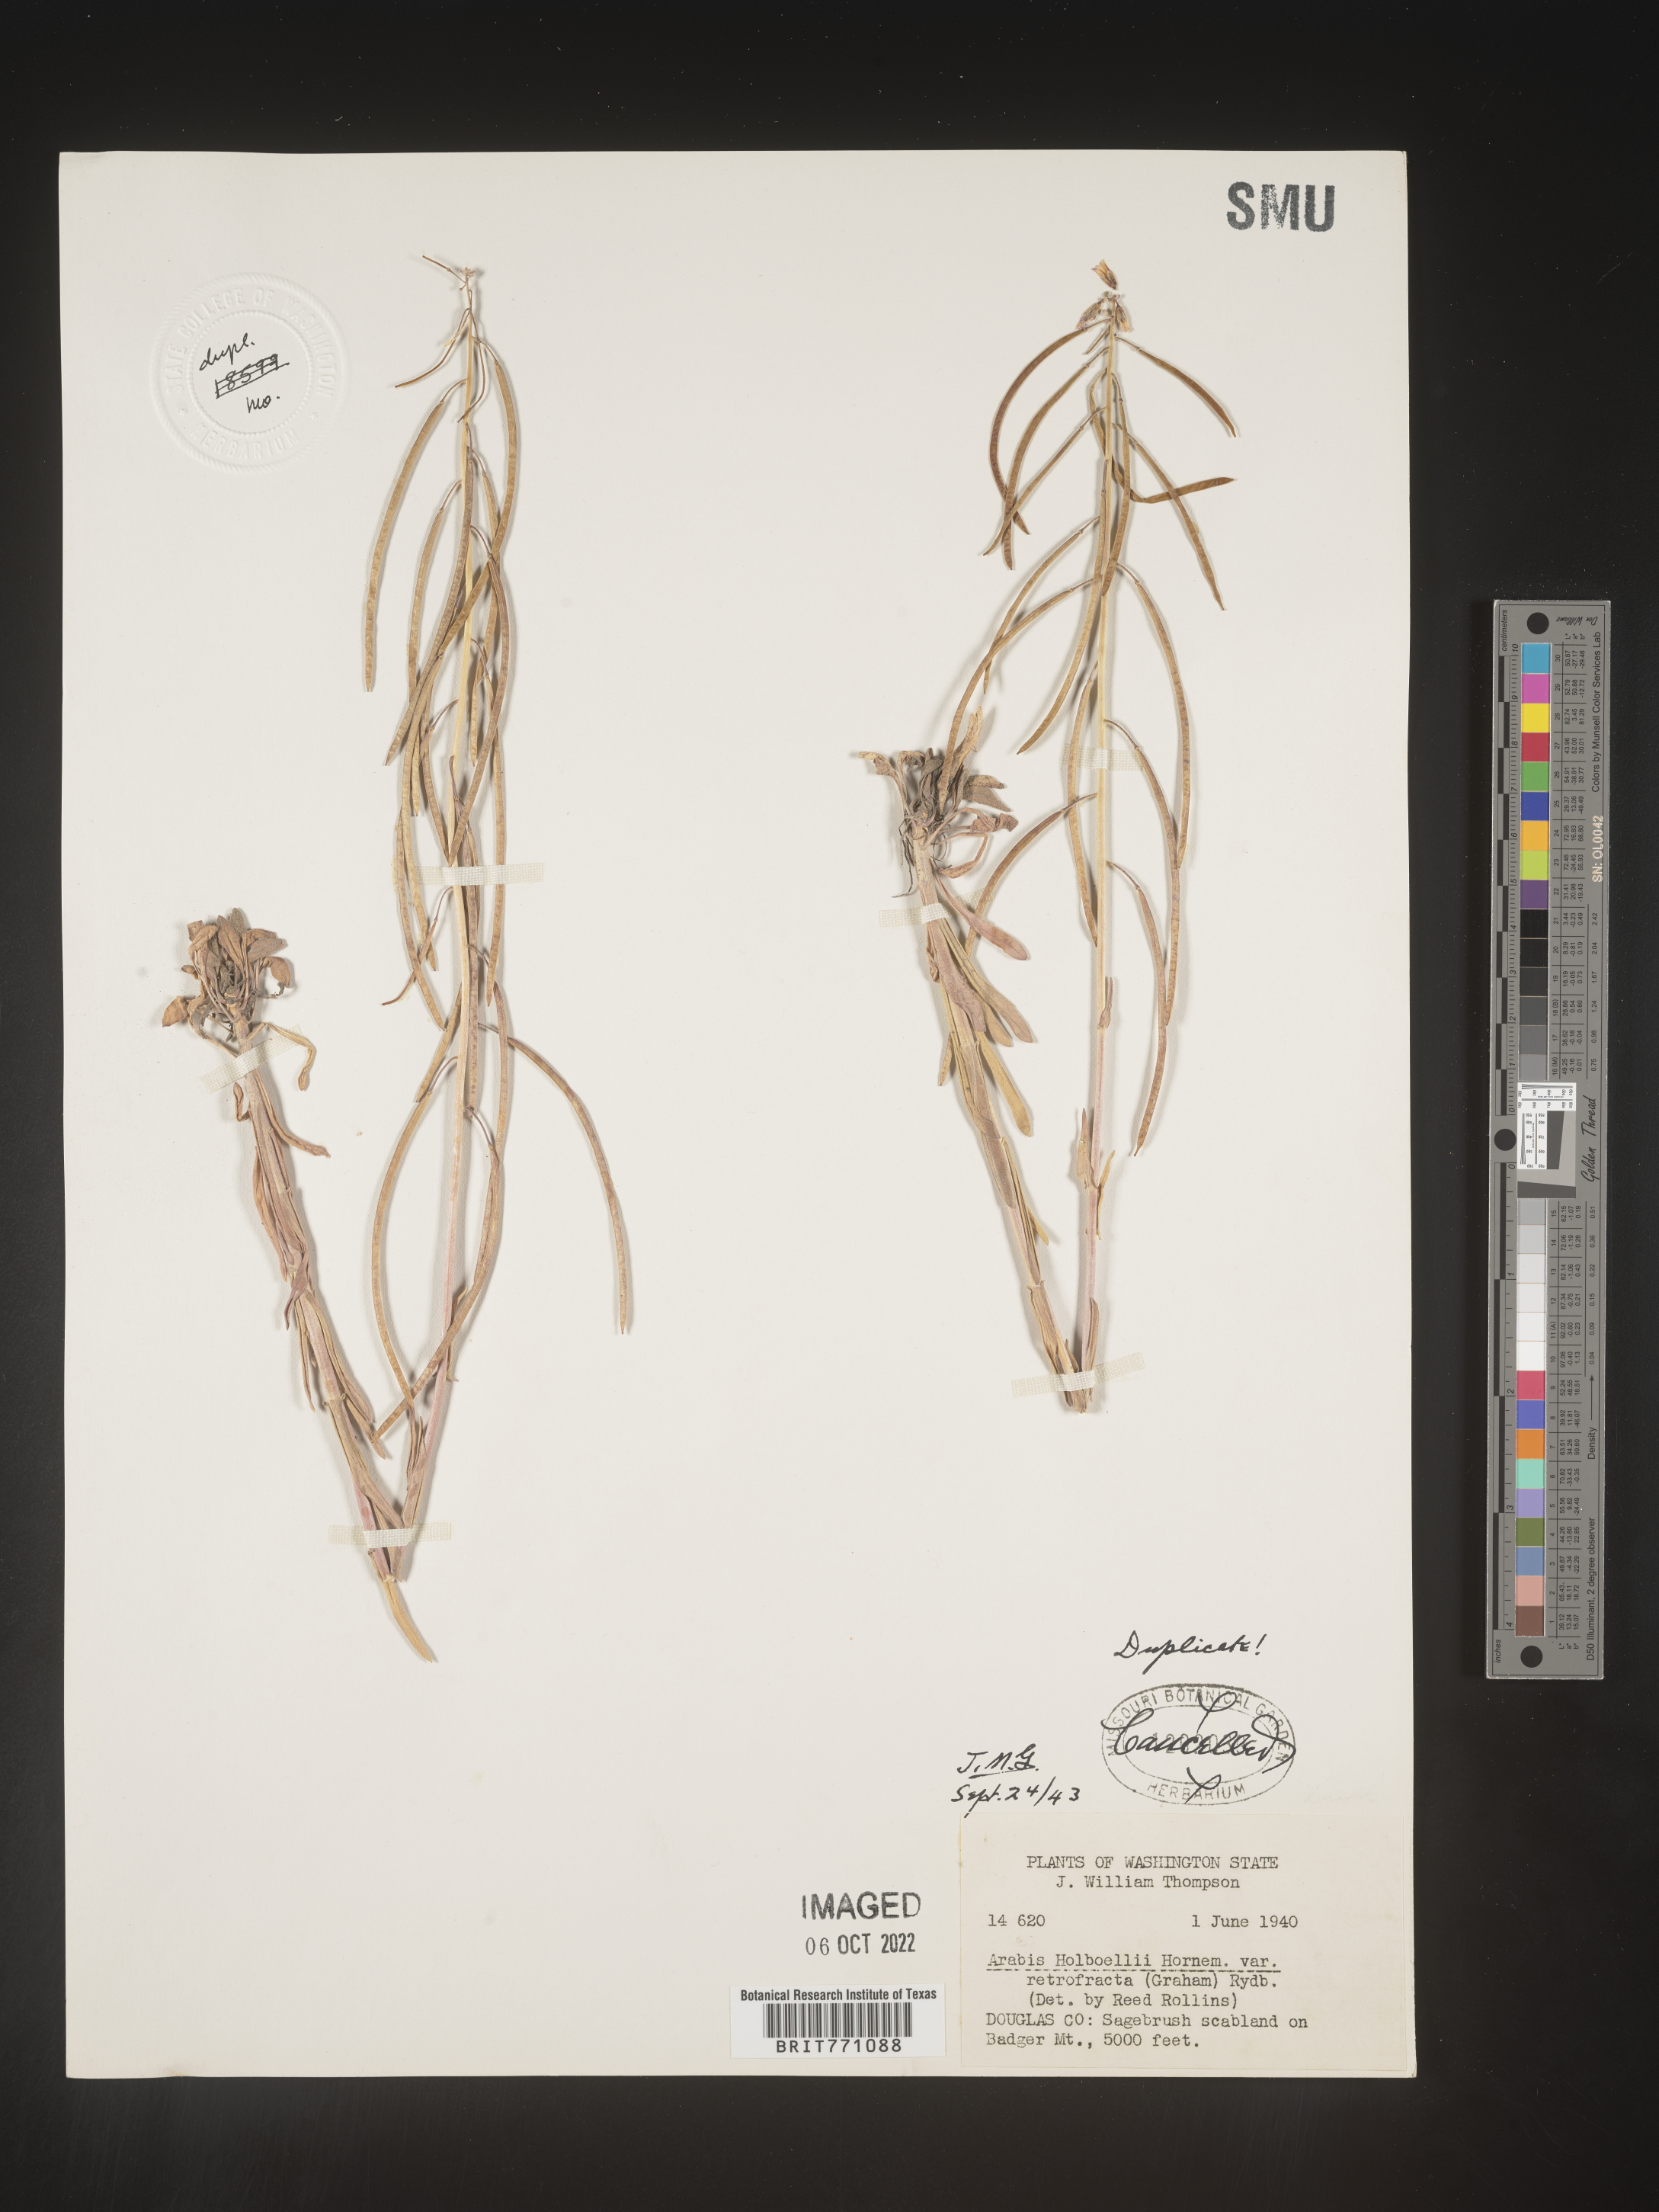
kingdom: Plantae
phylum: Tracheophyta
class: Magnoliopsida
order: Brassicales
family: Brassicaceae
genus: Boechera
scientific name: Boechera holboellii
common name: Holboell's rockcress
